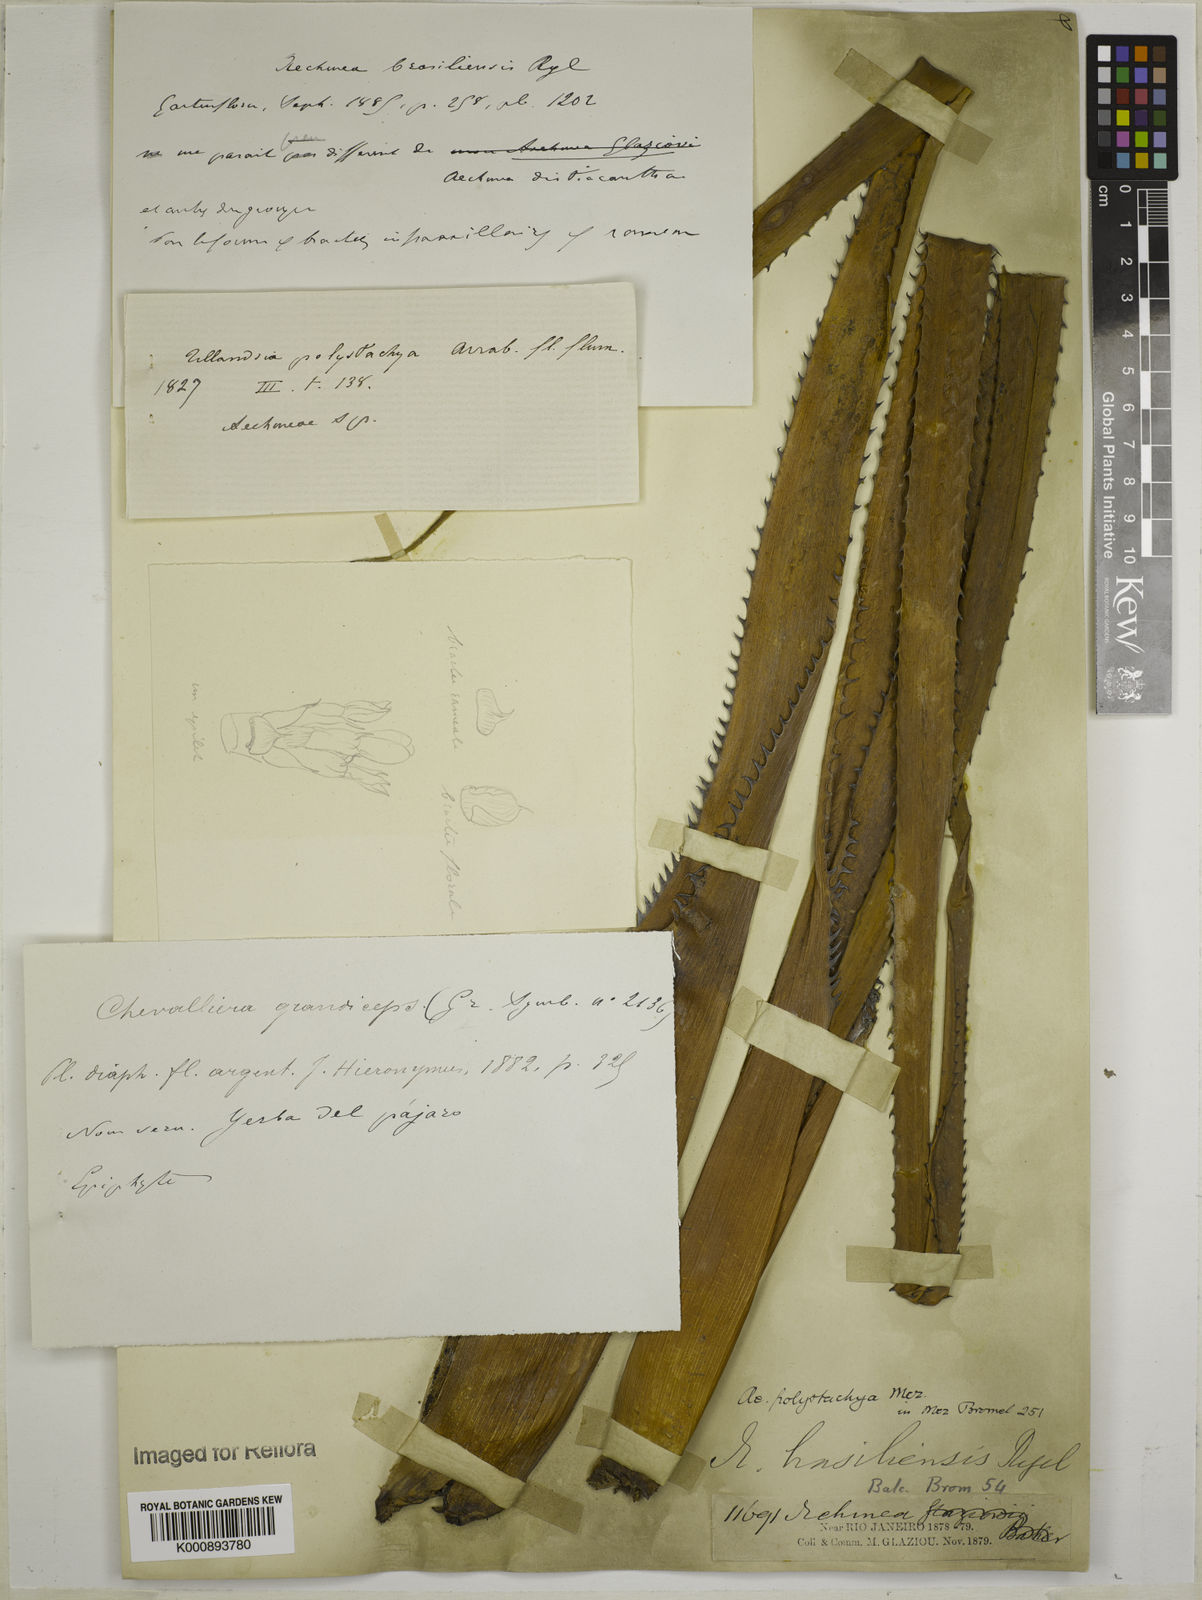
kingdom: Plantae
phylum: Tracheophyta
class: Liliopsida
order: Poales
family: Bromeliaceae
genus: Aechmea
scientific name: Aechmea distichantha
